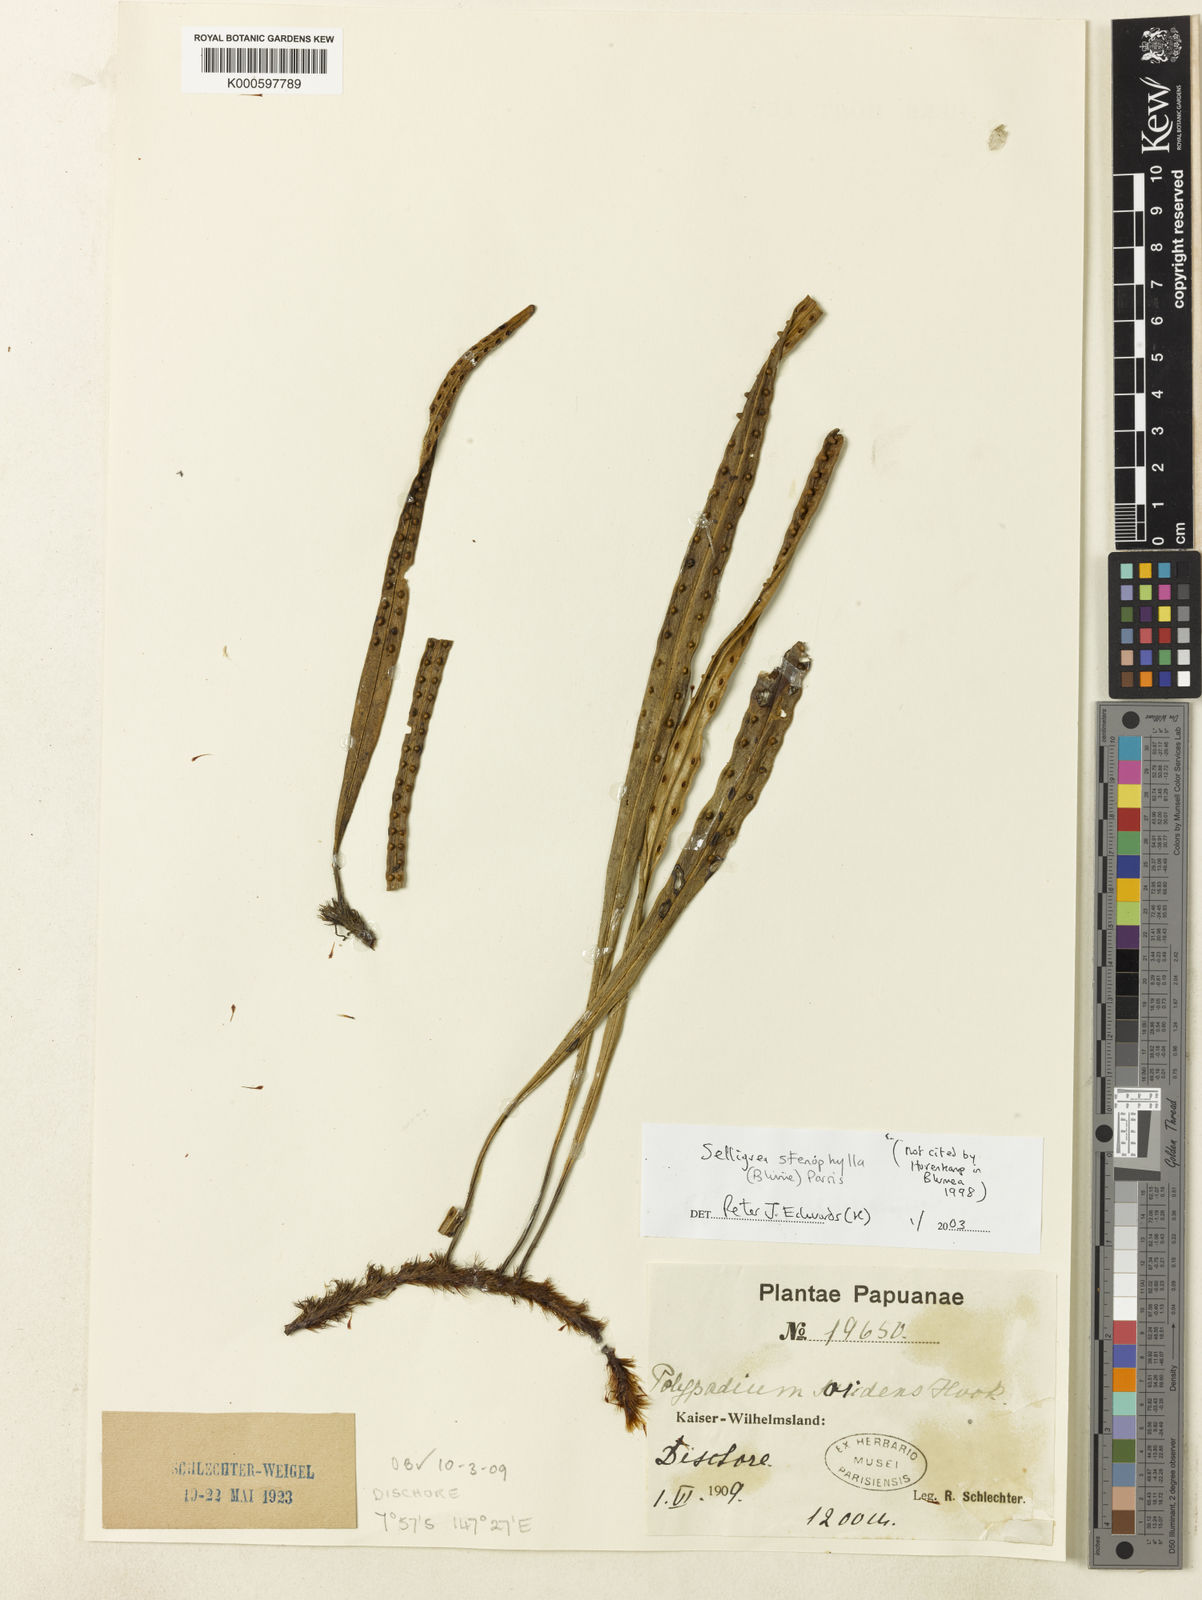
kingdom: Plantae
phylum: Tracheophyta
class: Polypodiopsida
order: Polypodiales
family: Polypodiaceae
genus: Selliguea
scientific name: Selliguea stenophylla
